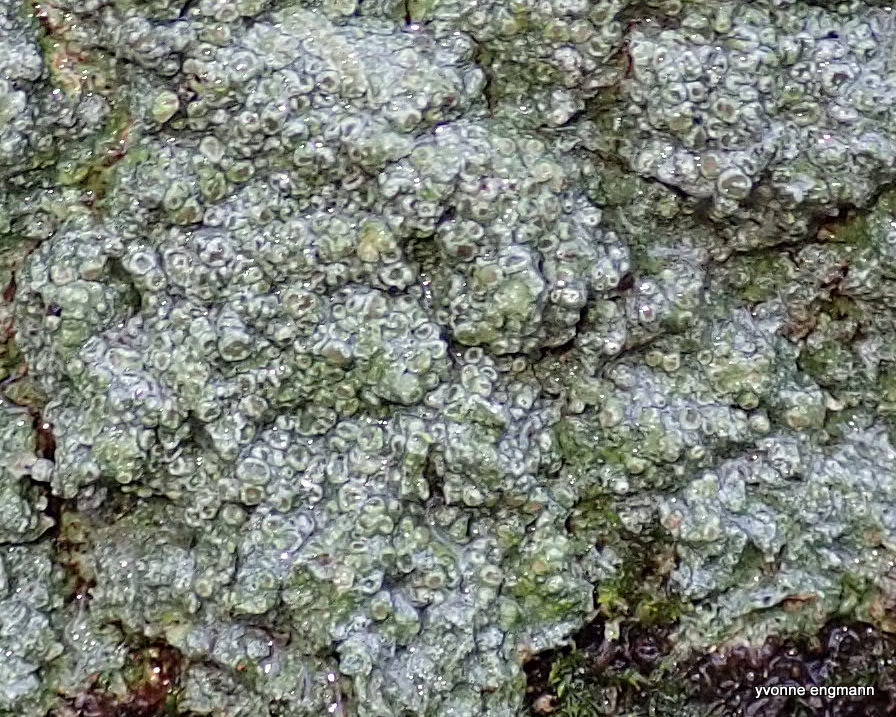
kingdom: Fungi
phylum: Ascomycota
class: Lecanoromycetes
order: Pertusariales
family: Pertusariaceae
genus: Pertusaria
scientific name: Pertusaria hymenea
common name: åben prikvortelav
